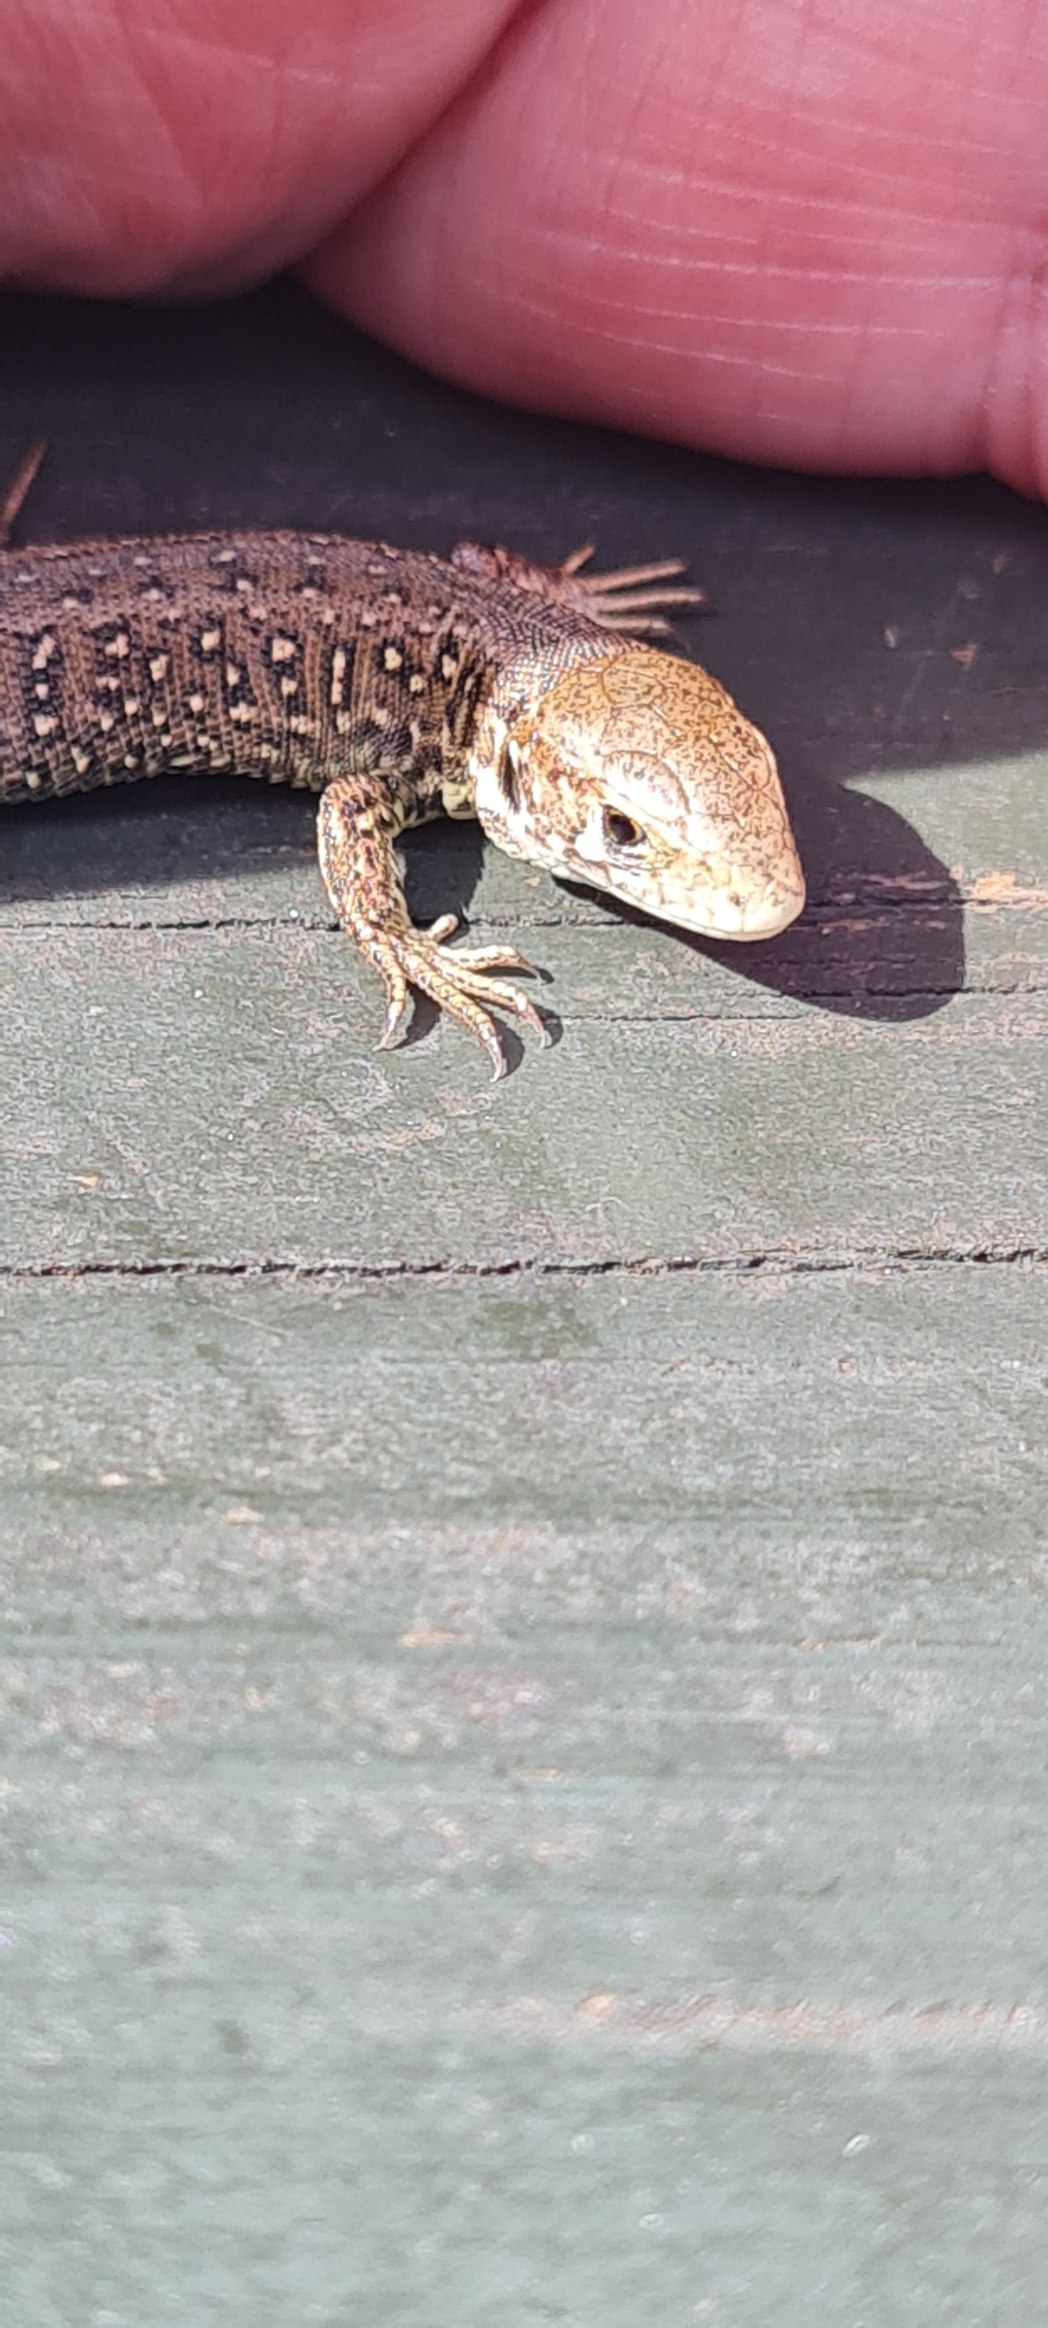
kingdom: Animalia
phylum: Chordata
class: Squamata
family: Lacertidae
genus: Lacerta
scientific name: Lacerta agilis
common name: Markfirben
